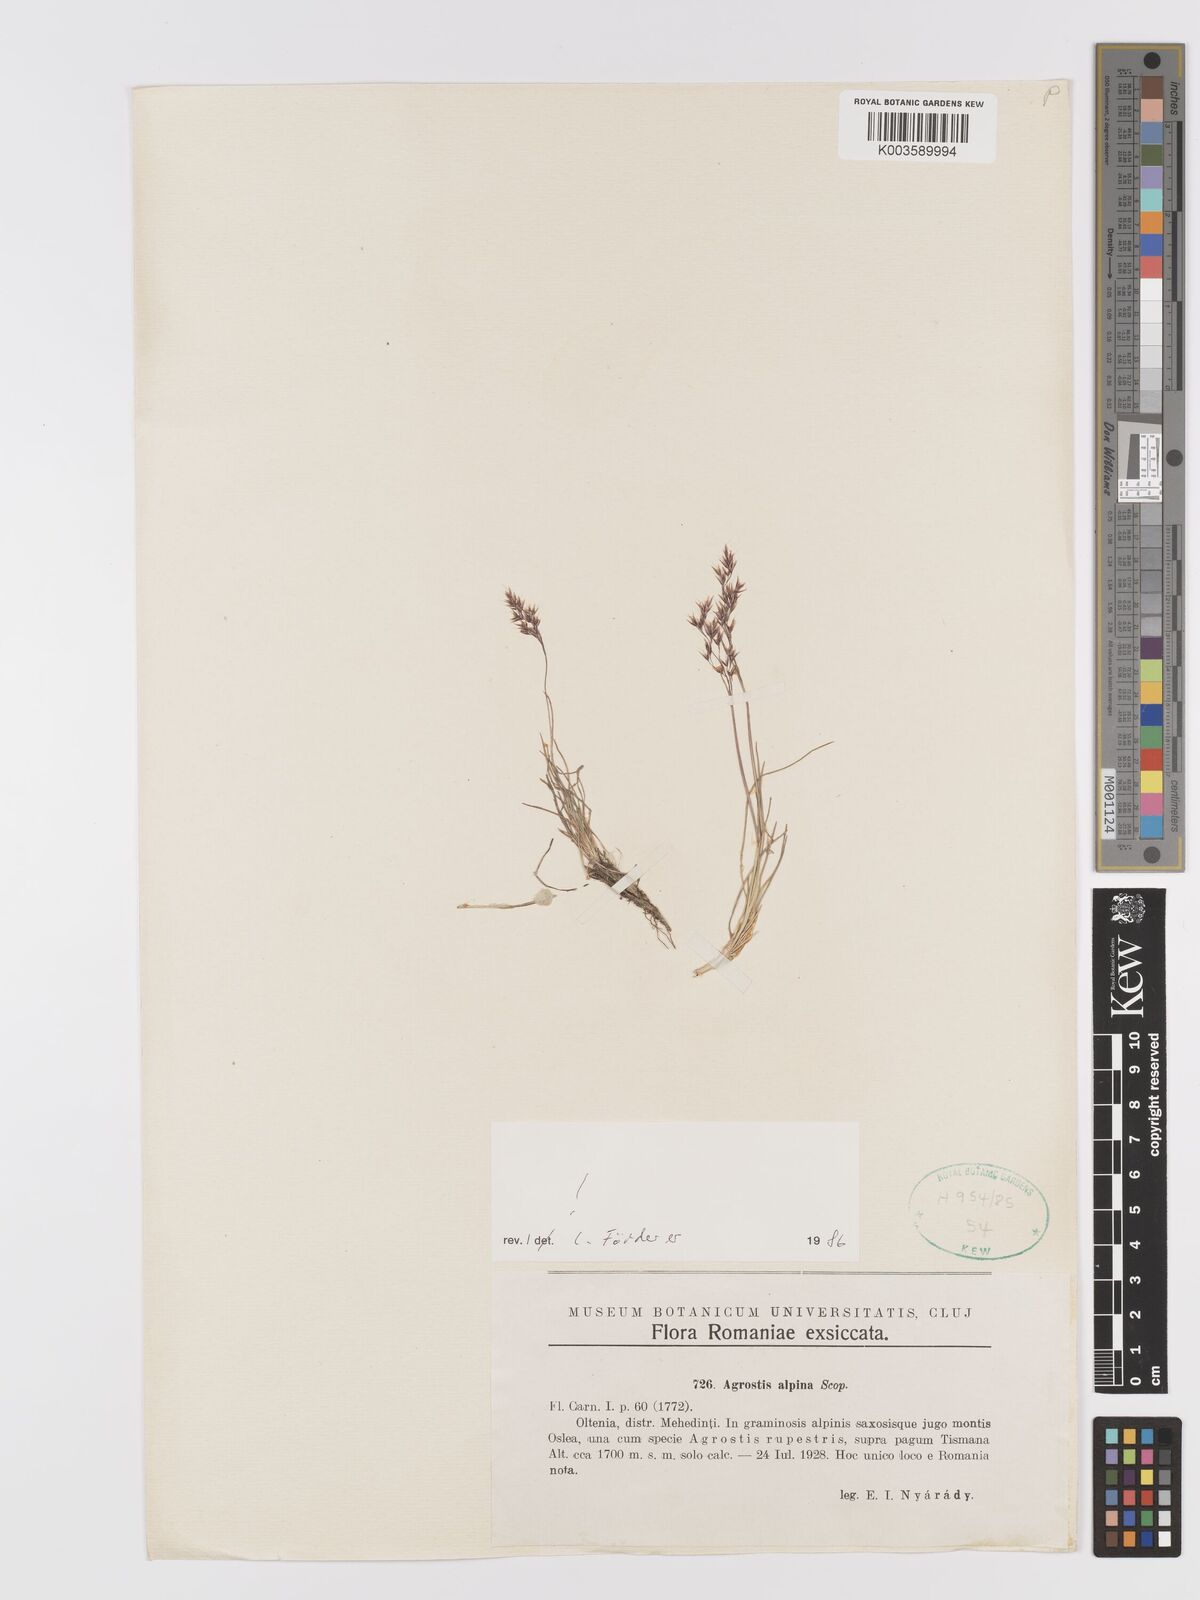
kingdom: Plantae
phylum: Tracheophyta
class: Liliopsida
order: Poales
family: Poaceae
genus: Alpagrostis
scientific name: Alpagrostis alpina
